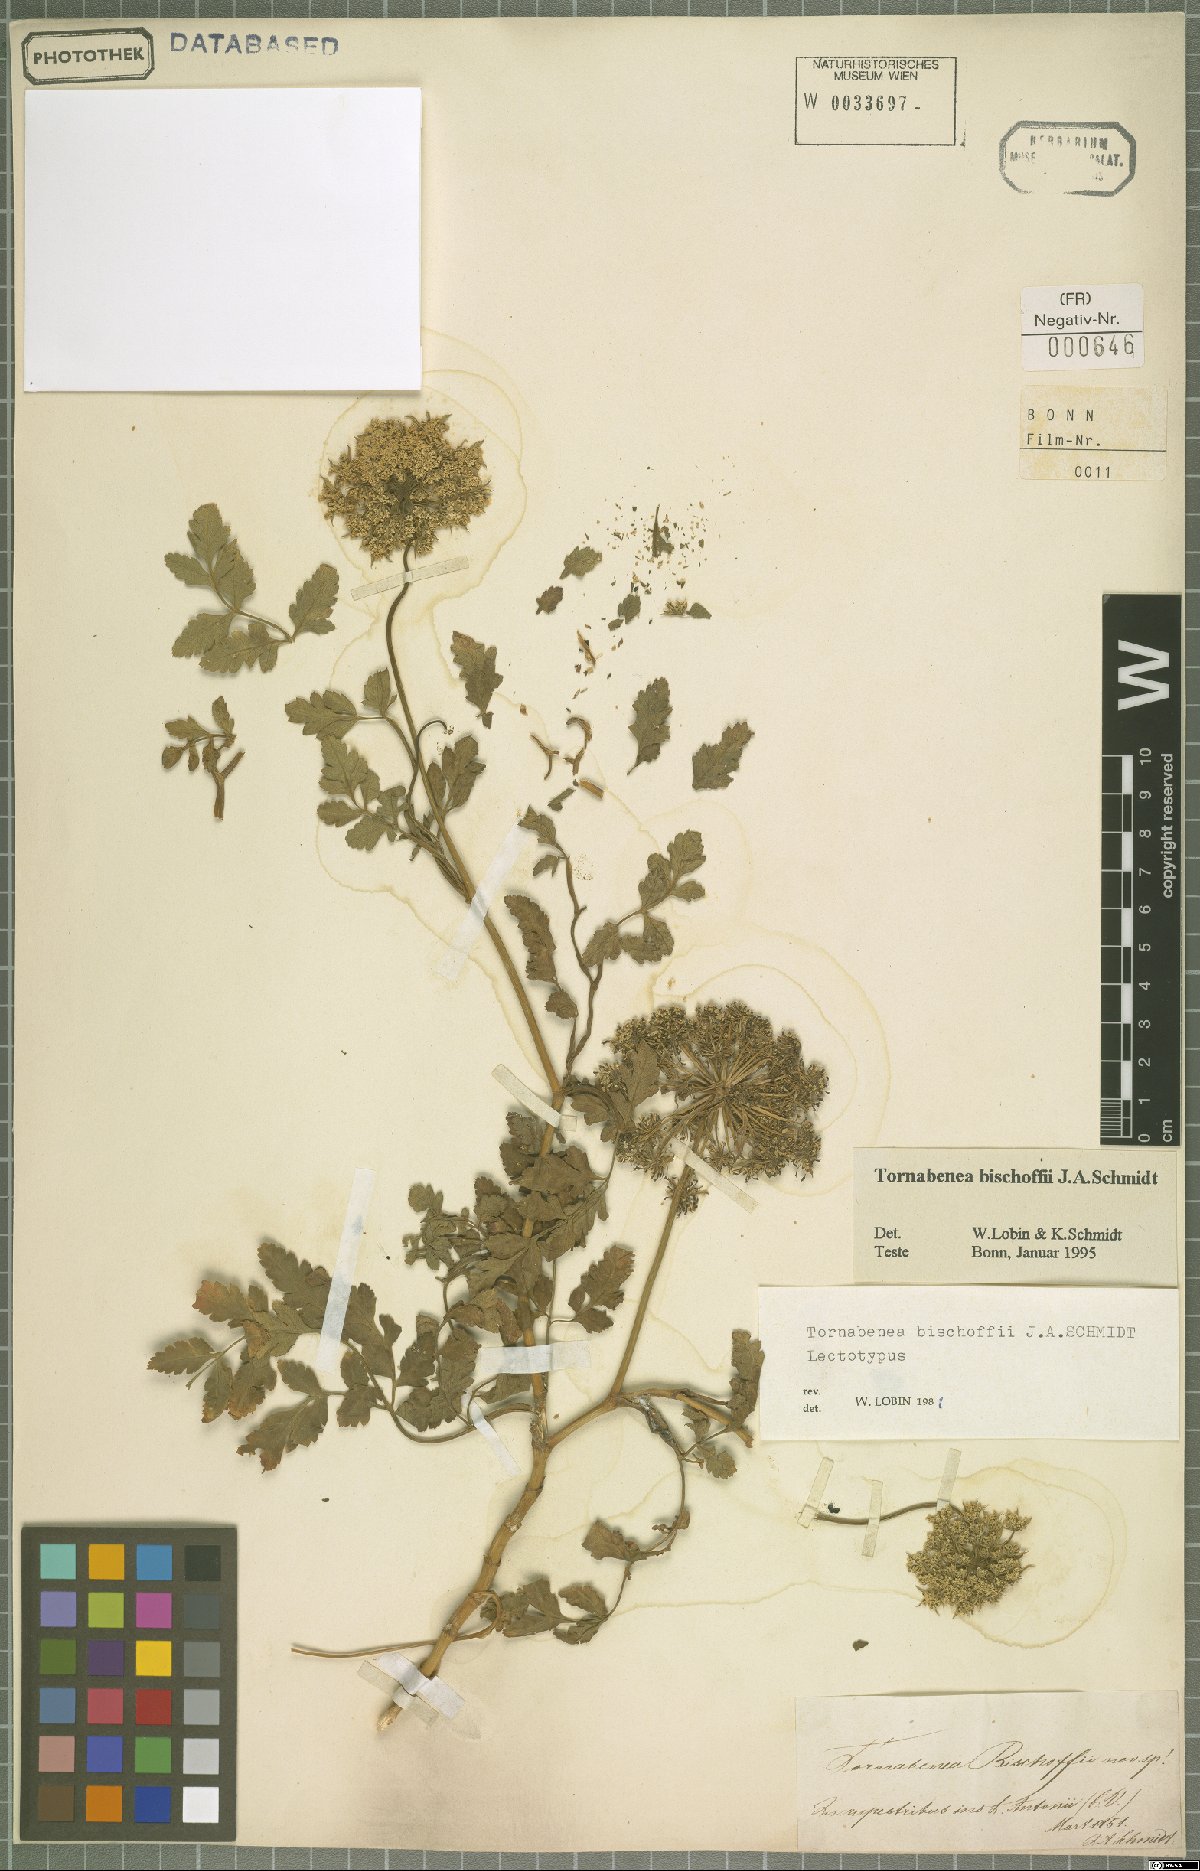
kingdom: Plantae
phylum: Tracheophyta
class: Magnoliopsida
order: Apiales
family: Apiaceae
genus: Daucus
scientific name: Daucus insularis
